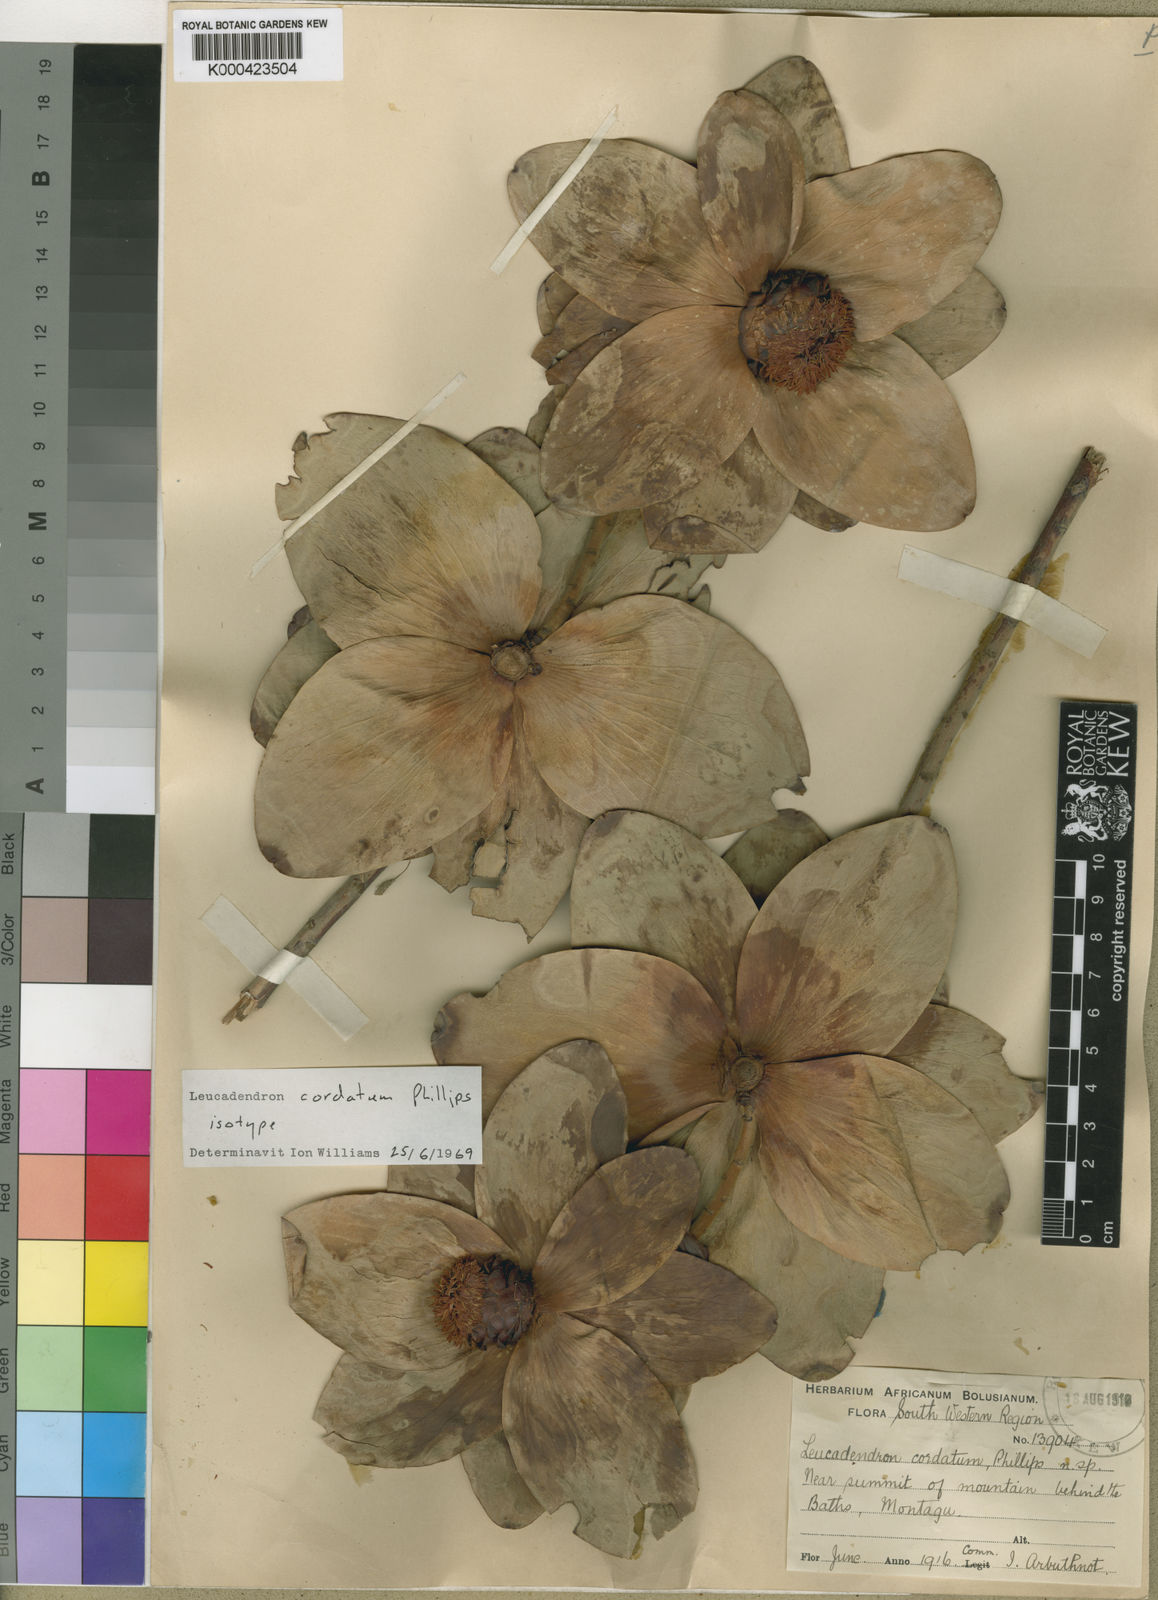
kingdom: Plantae
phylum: Tracheophyta
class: Magnoliopsida
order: Proteales
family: Proteaceae
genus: Leucadendron
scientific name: Leucadendron cordatum
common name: Droopy conebush
